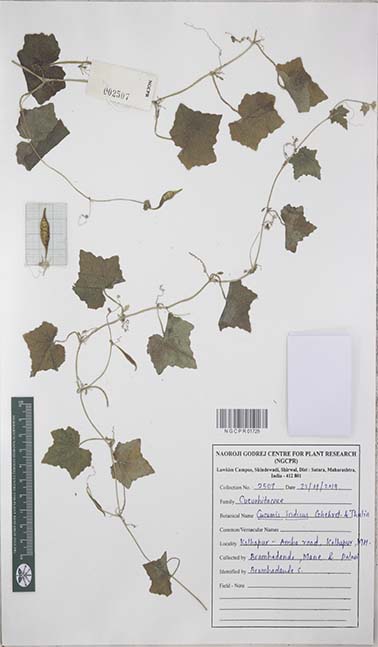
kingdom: Plantae
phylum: Tracheophyta
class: Magnoliopsida
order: Cucurbitales
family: Cucurbitaceae
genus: Cucumis
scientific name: Cucumis indicus
